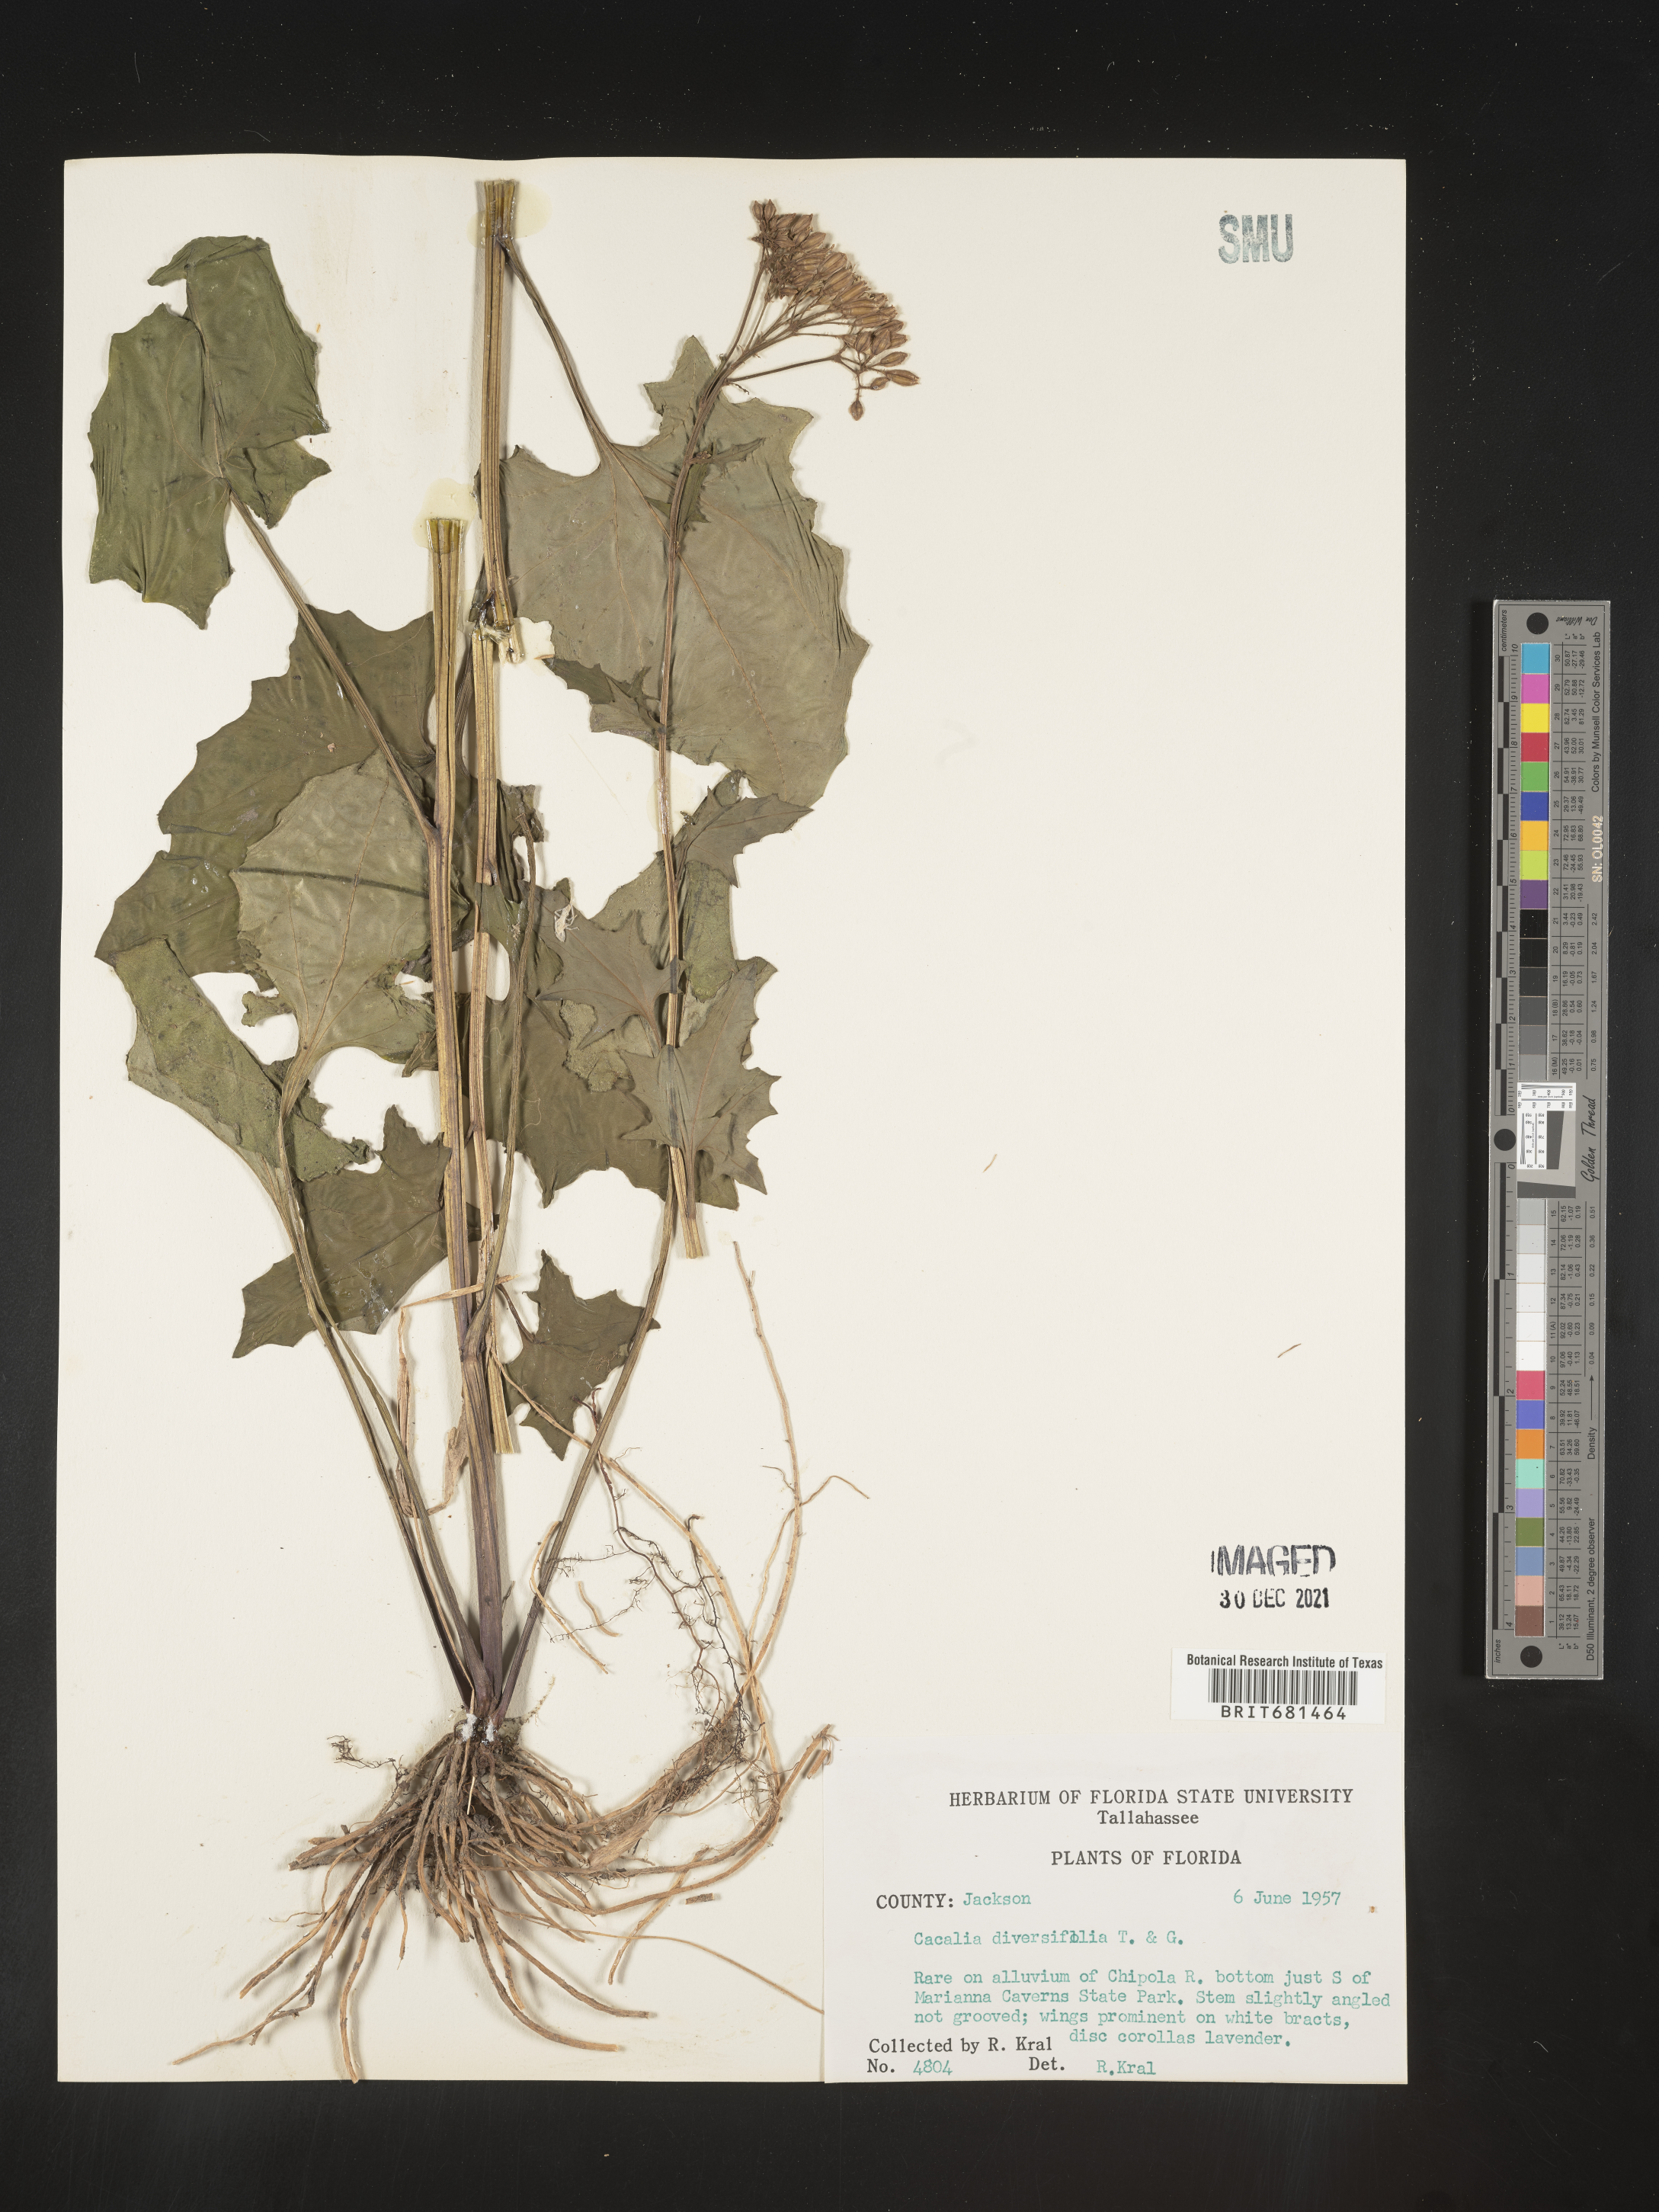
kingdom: Plantae
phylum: Tracheophyta
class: Magnoliopsida
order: Asterales
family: Asteraceae
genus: Arnoglossum
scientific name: Arnoglossum diversifolium
